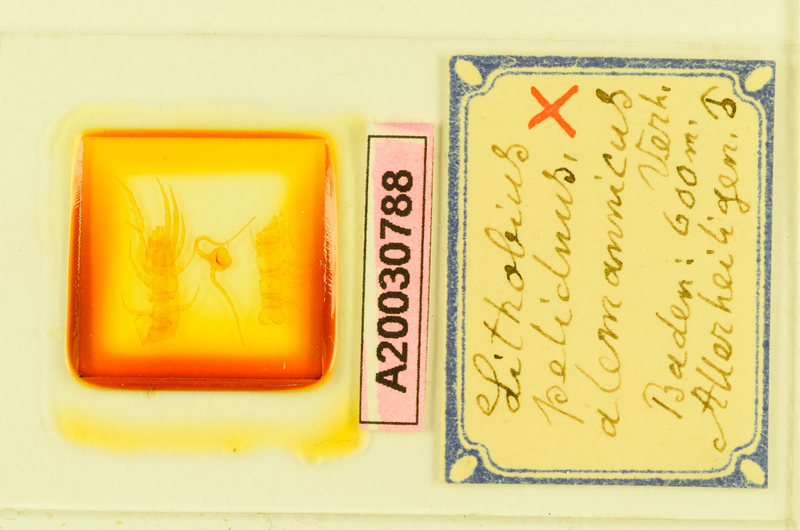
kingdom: Animalia
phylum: Arthropoda
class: Chilopoda
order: Lithobiomorpha
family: Lithobiidae
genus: Lithobius
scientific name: Lithobius pelidnus
